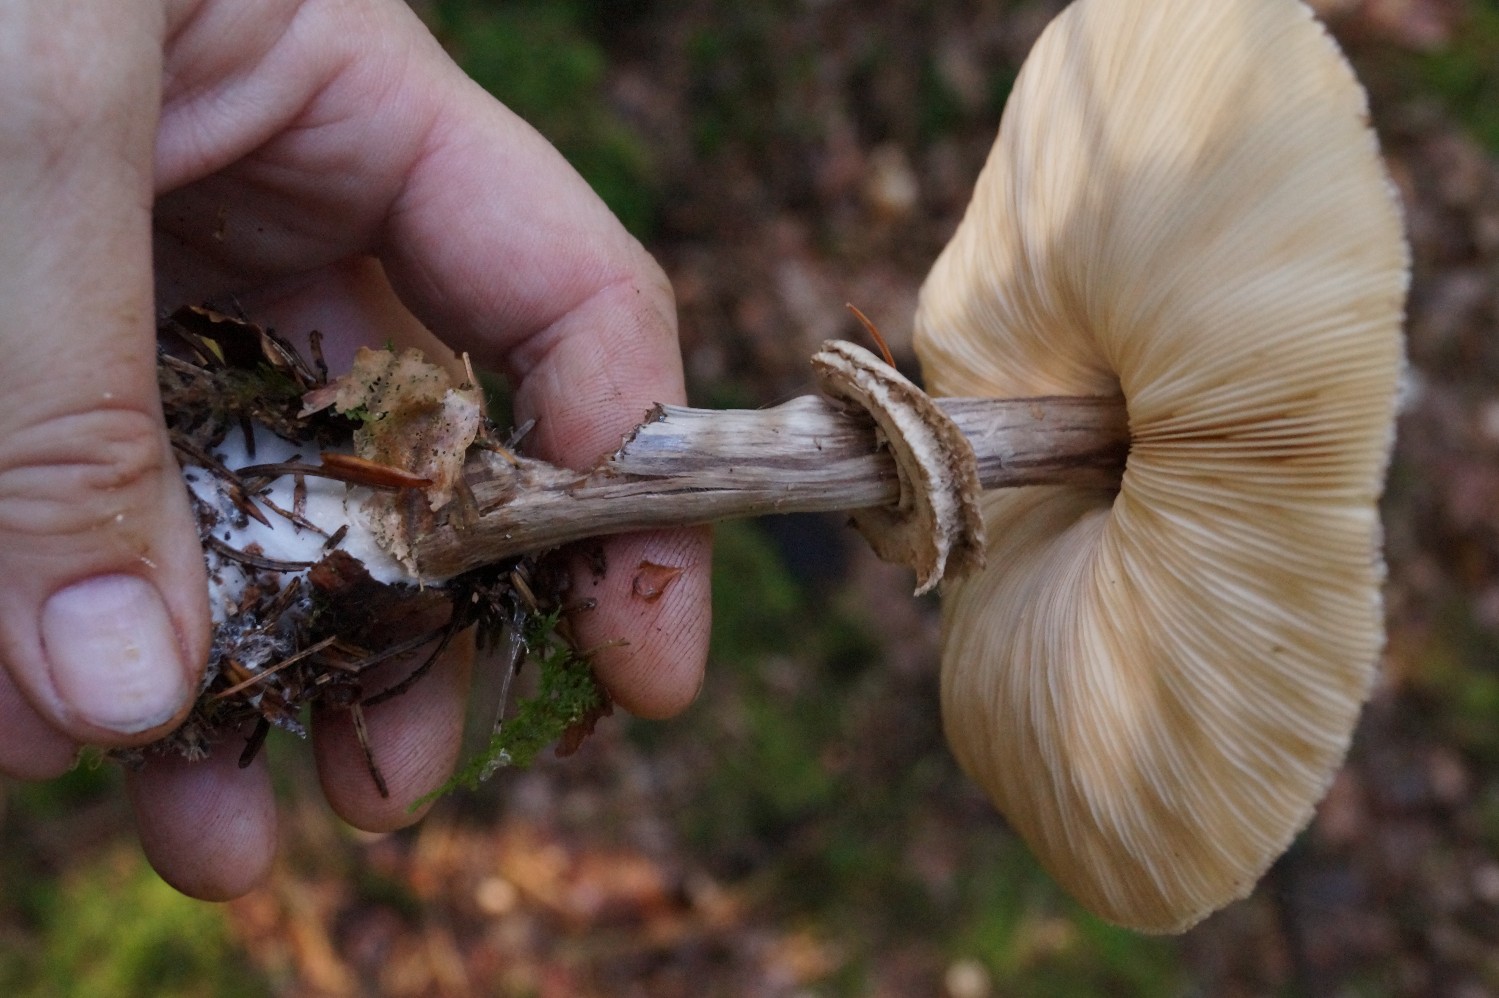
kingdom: Fungi
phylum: Basidiomycota
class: Agaricomycetes
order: Agaricales
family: Agaricaceae
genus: Chlorophyllum
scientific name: Chlorophyllum olivieri
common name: almindelig rabarberhat
